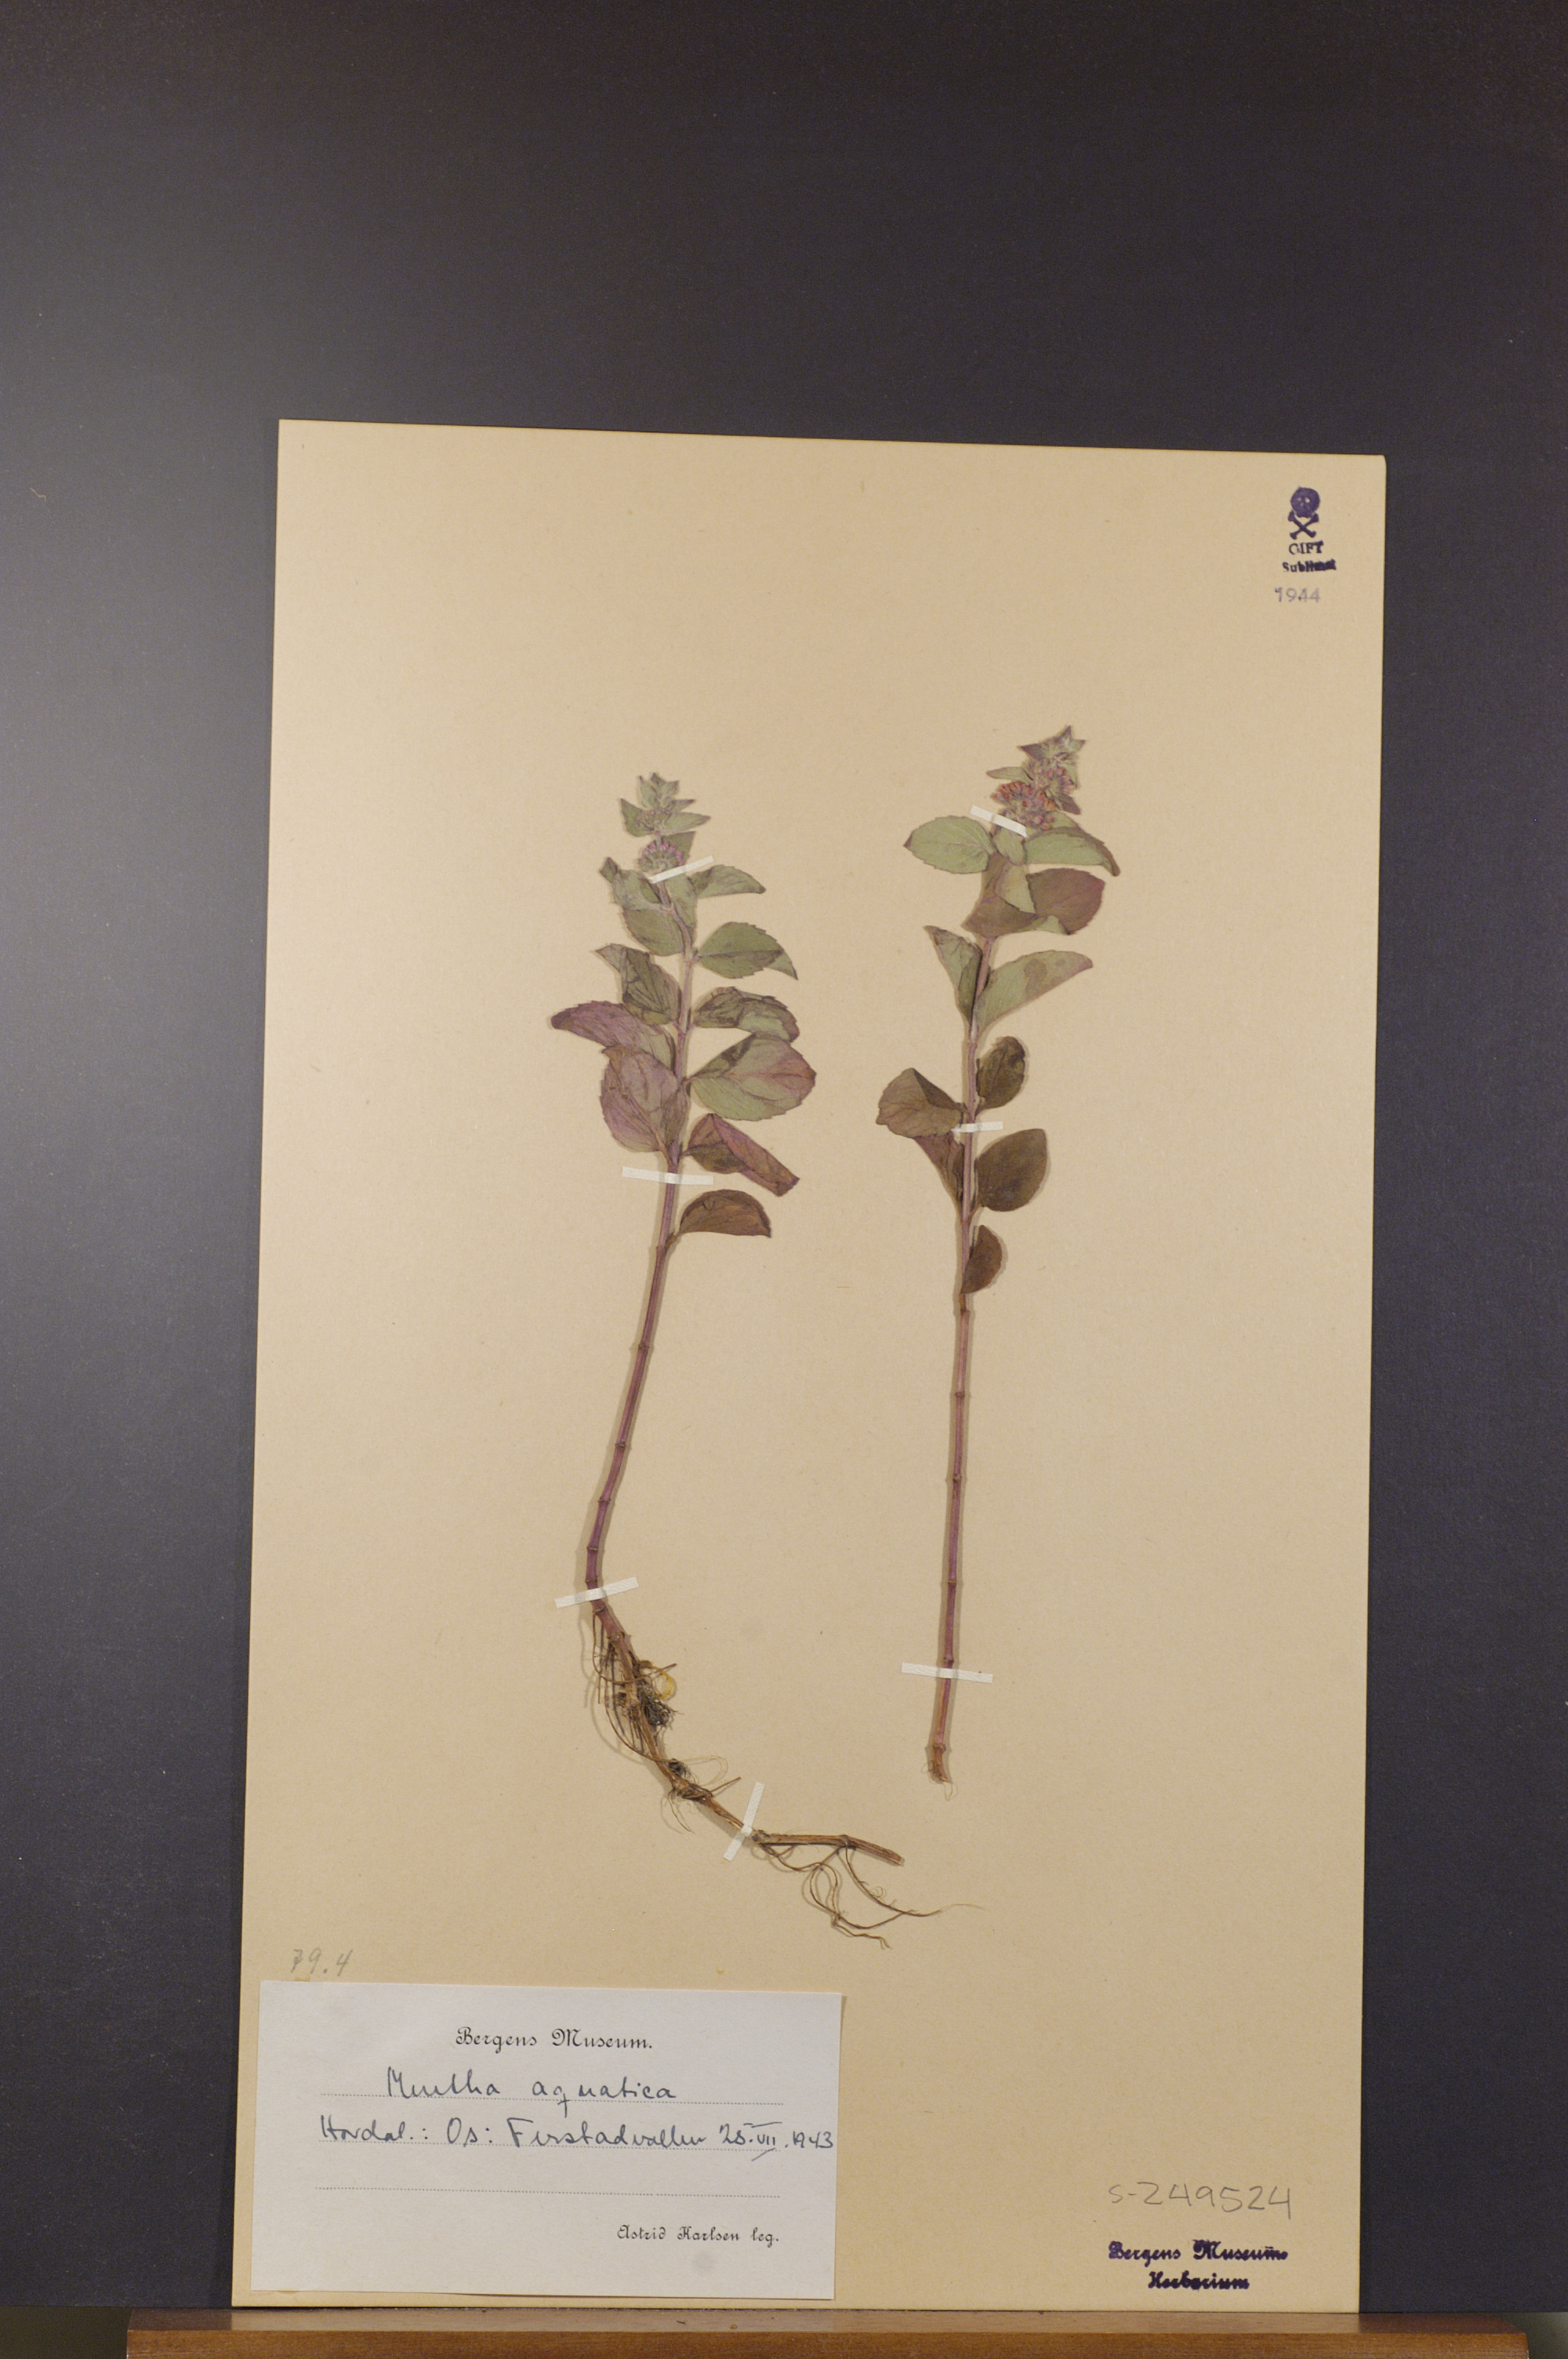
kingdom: Plantae
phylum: Tracheophyta
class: Magnoliopsida
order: Lamiales
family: Lamiaceae
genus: Mentha
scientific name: Mentha aquatica
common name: Water mint
